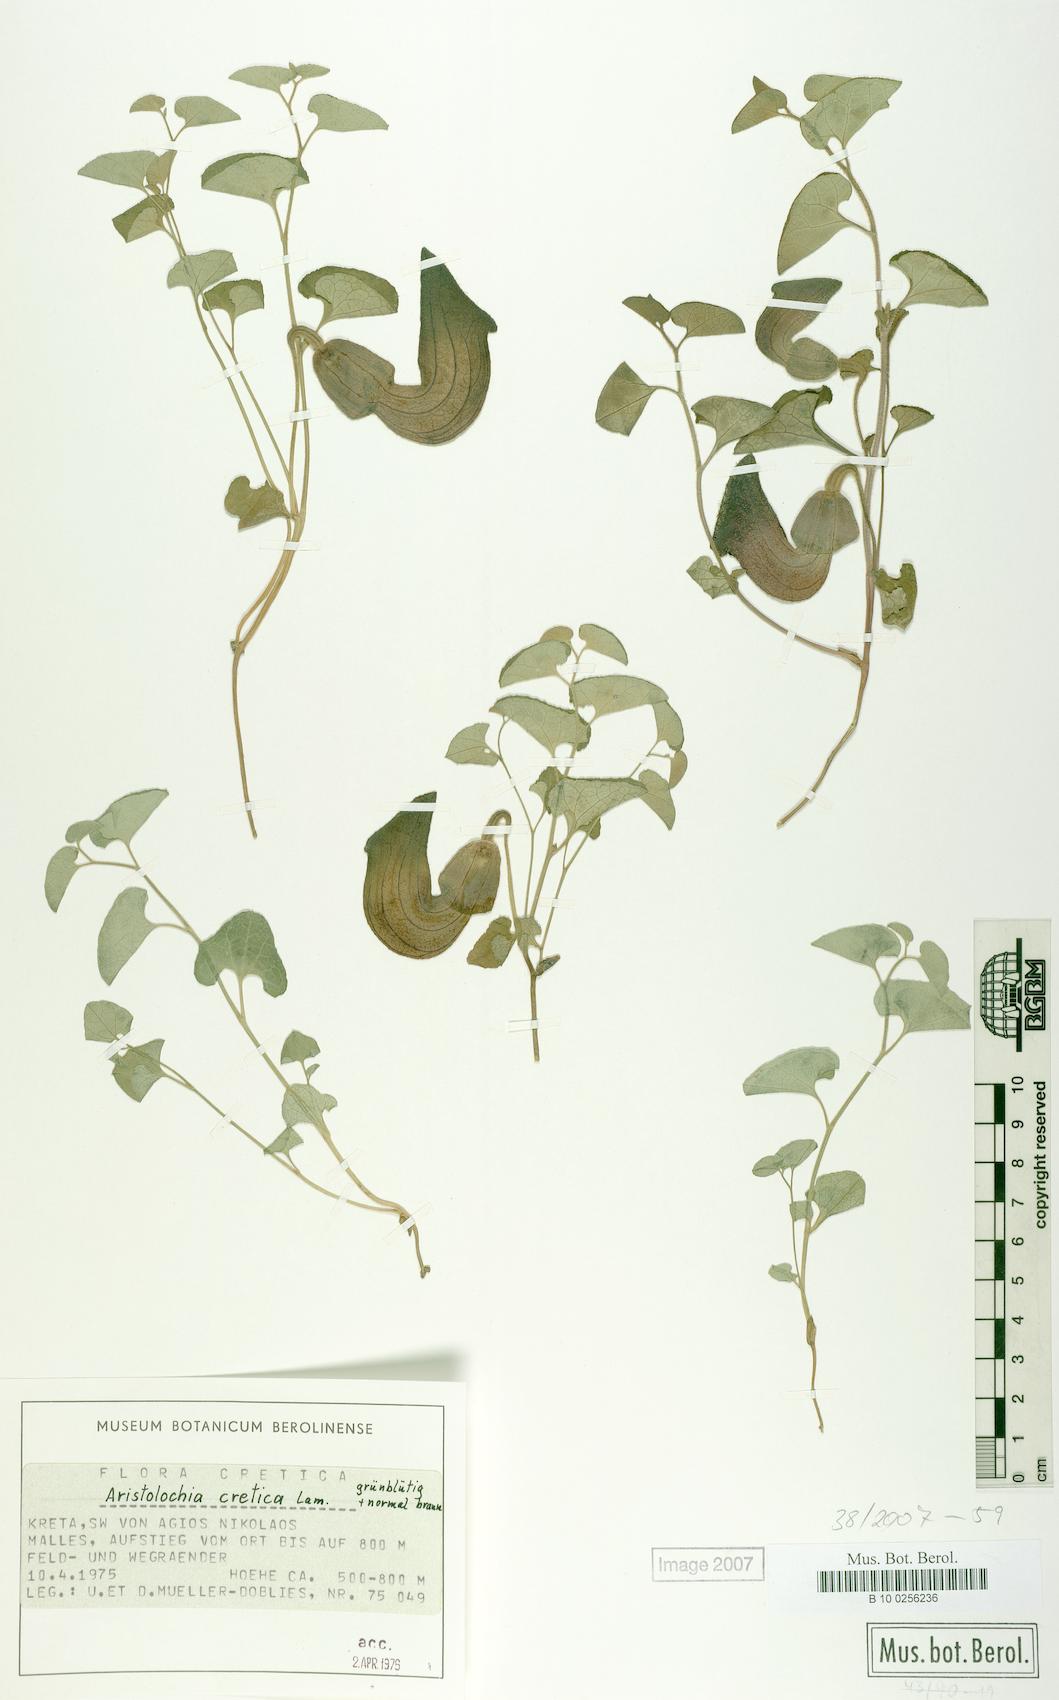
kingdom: Plantae
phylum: Tracheophyta
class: Magnoliopsida
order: Piperales
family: Aristolochiaceae
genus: Aristolochia
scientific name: Aristolochia cretica
